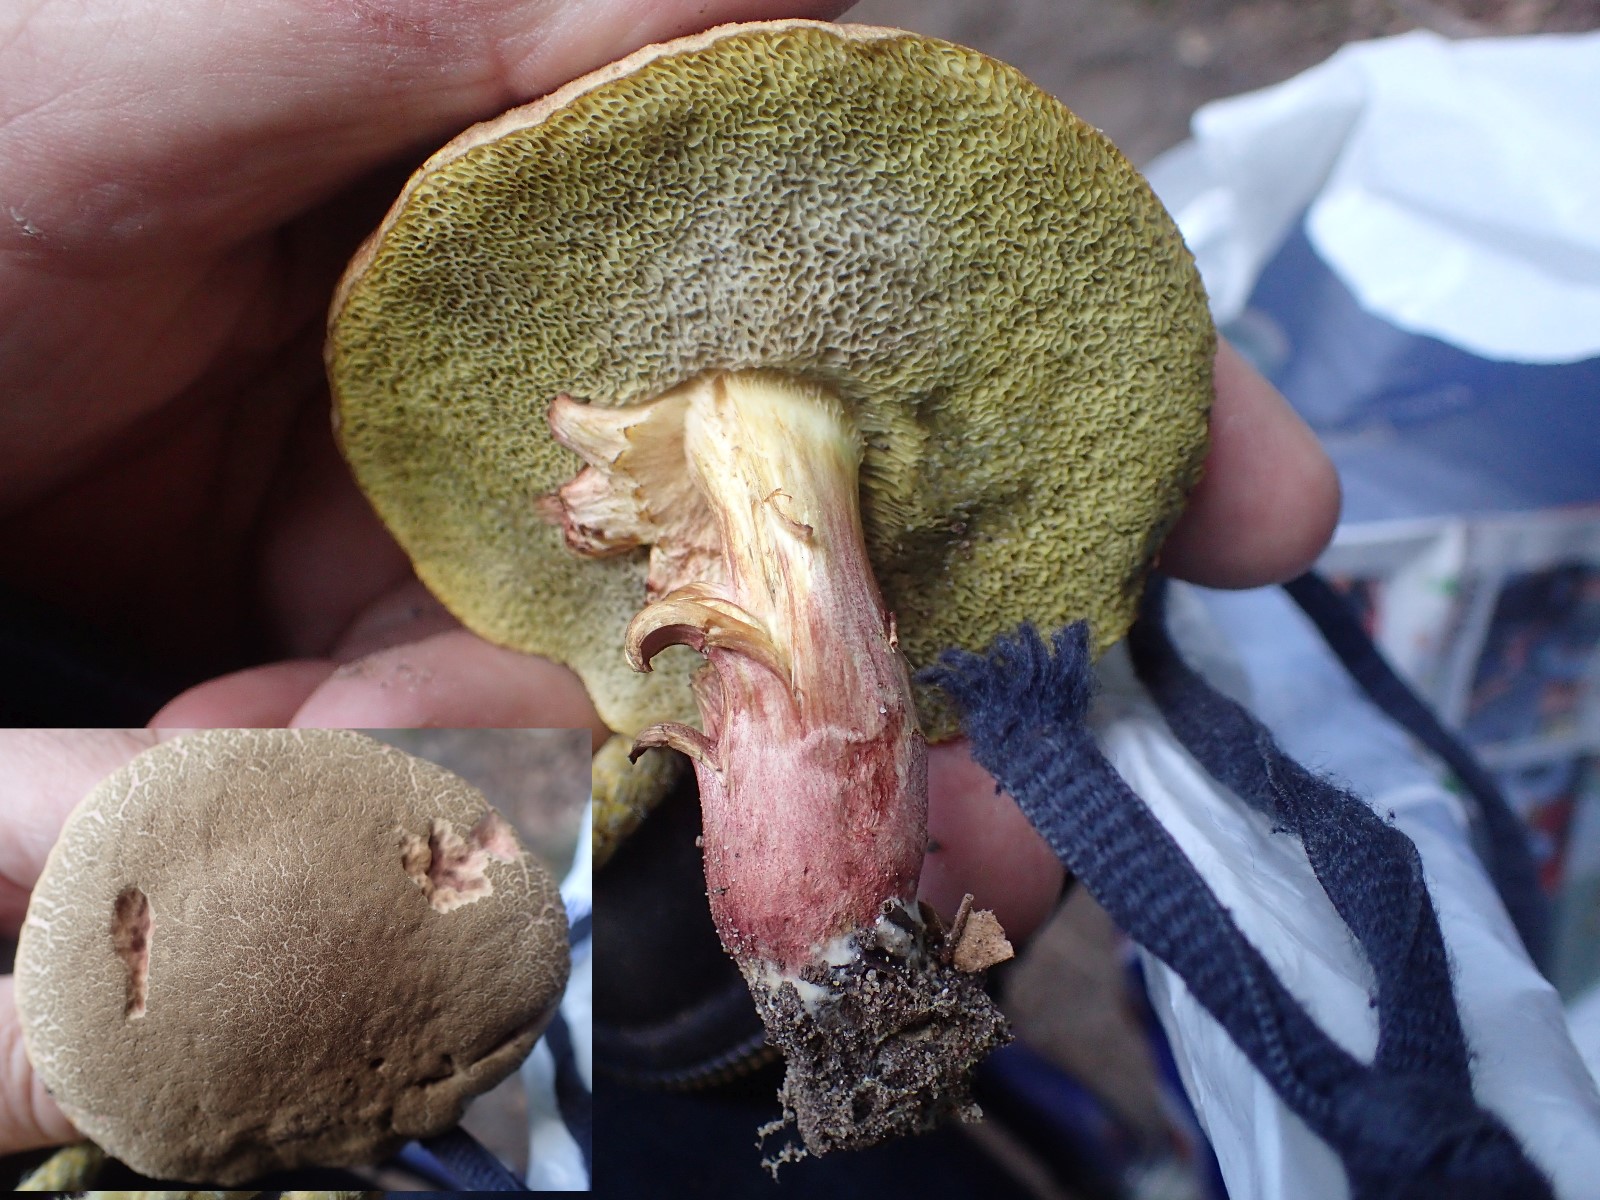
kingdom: Fungi
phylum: Basidiomycota
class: Agaricomycetes
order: Boletales
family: Boletaceae
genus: Xerocomellus
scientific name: Xerocomellus chrysenteron
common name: rødsprukken rørhat
